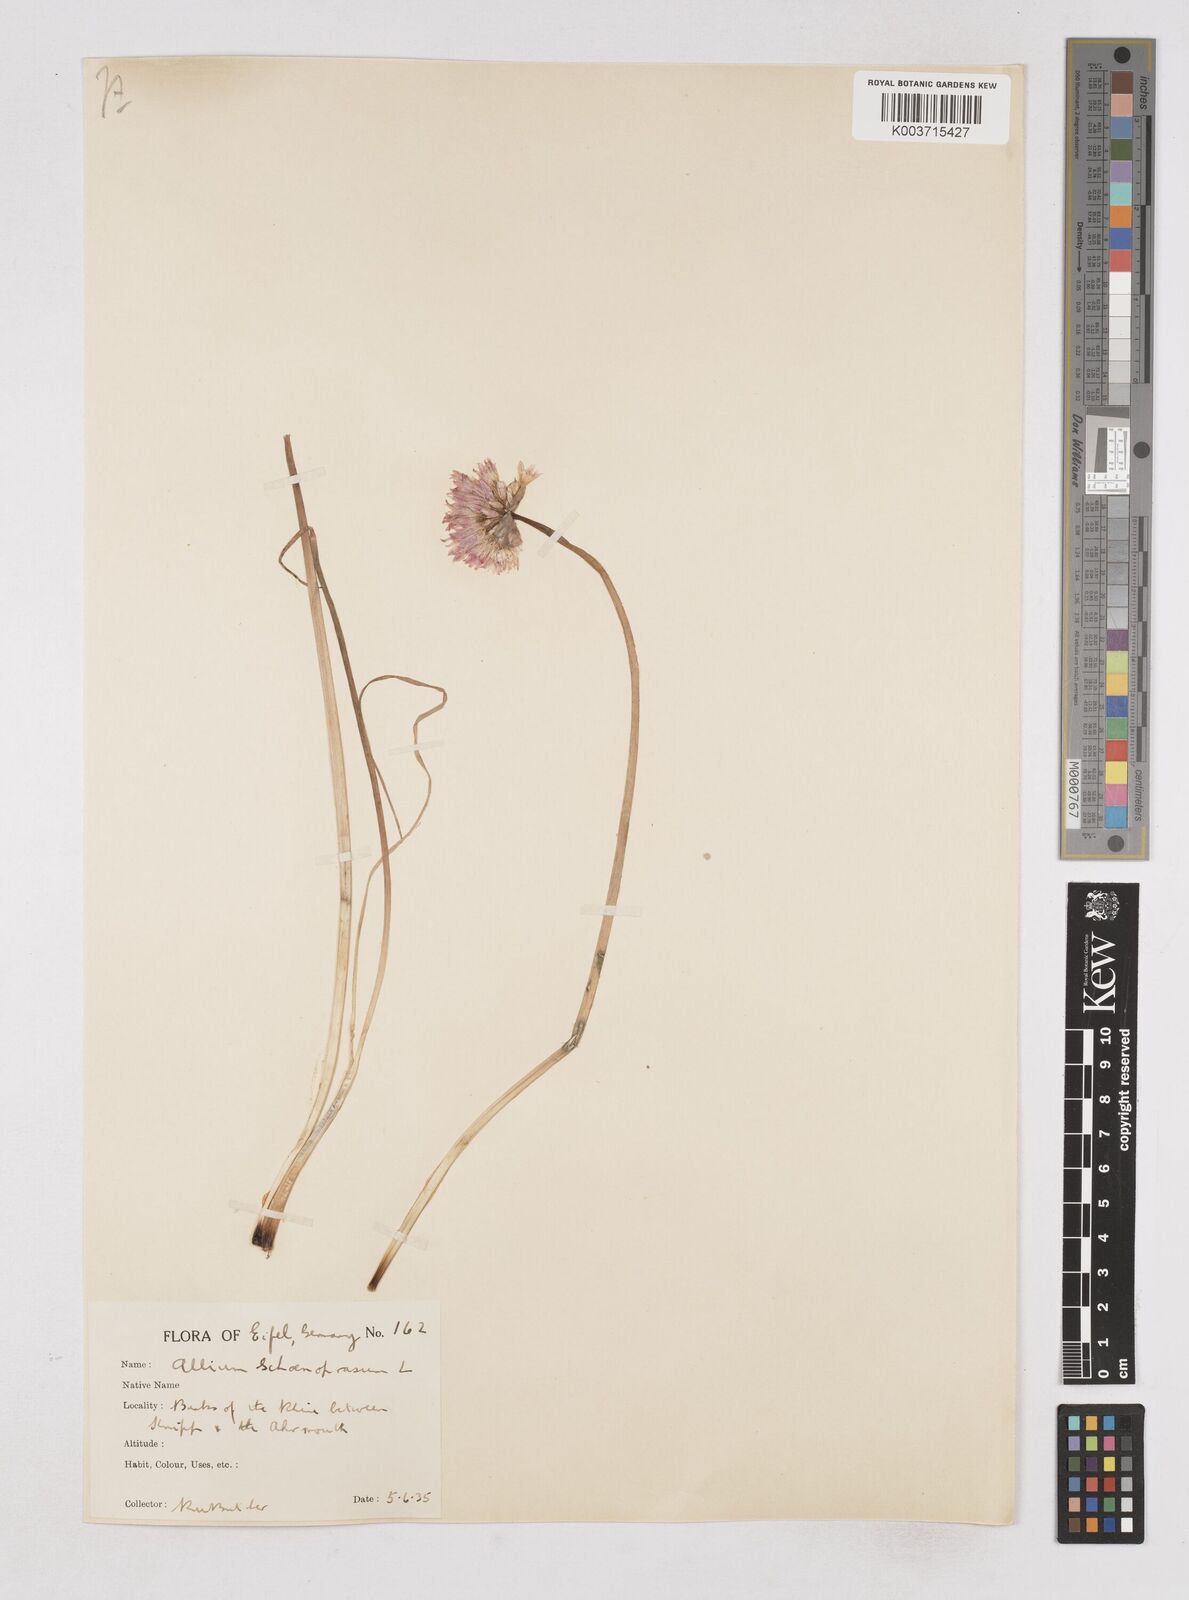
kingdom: Plantae
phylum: Tracheophyta
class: Liliopsida
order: Asparagales
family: Amaryllidaceae
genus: Allium
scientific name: Allium schoenoprasum
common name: Chives
